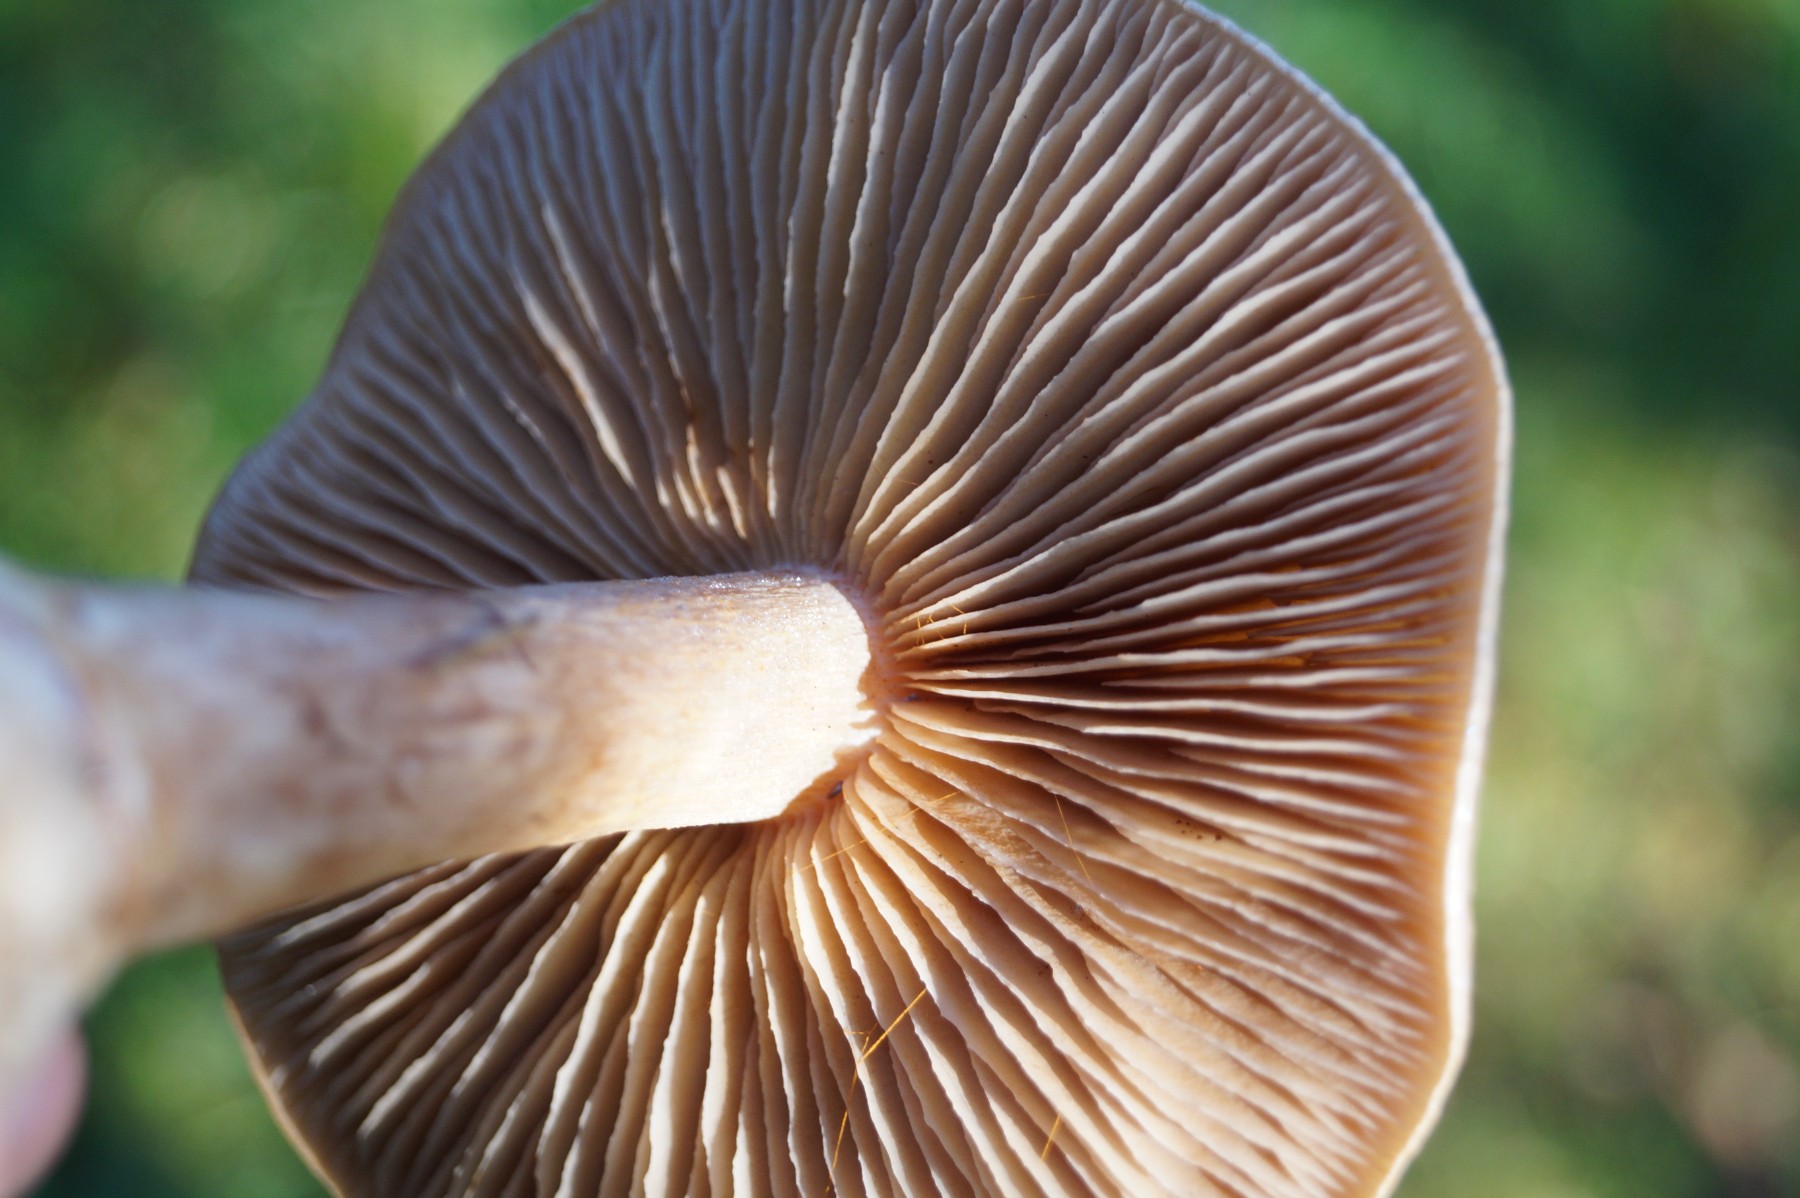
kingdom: Fungi
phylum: Basidiomycota
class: Agaricomycetes
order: Agaricales
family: Cortinariaceae
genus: Cortinarius
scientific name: Cortinarius
